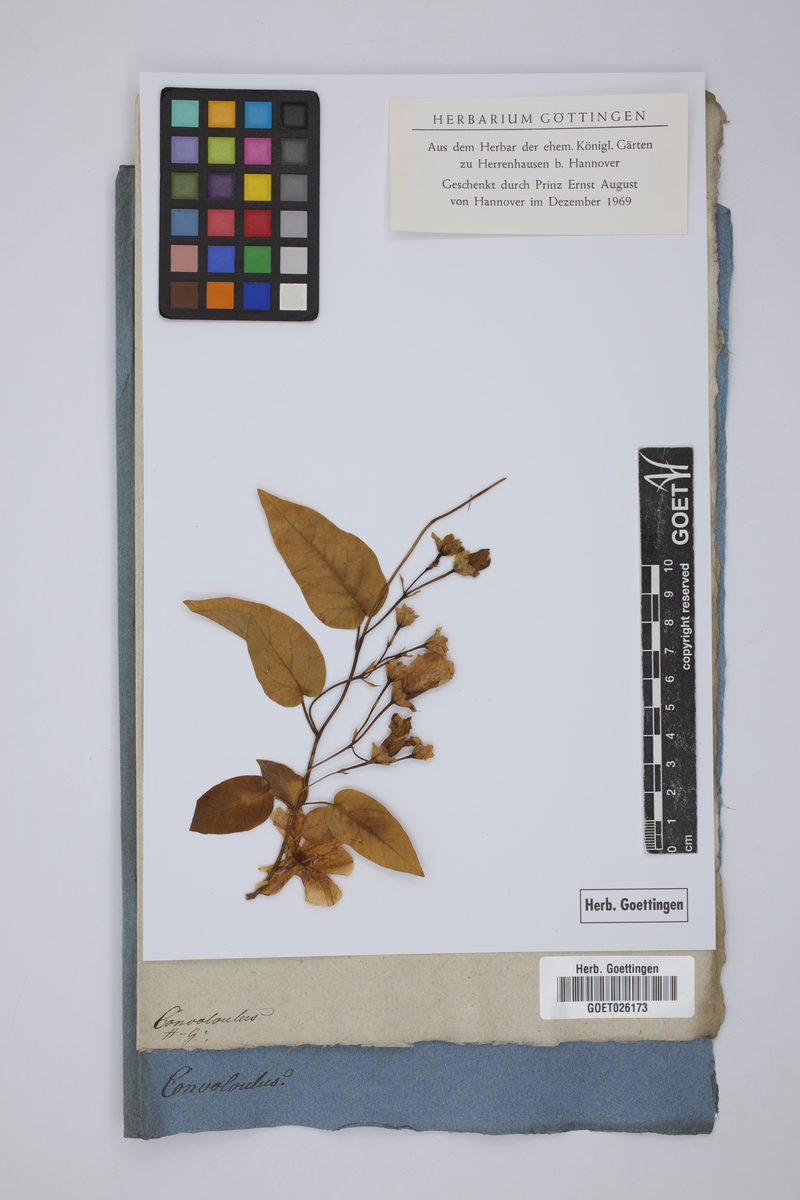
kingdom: Plantae
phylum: Tracheophyta
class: Magnoliopsida
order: Solanales
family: Convolvulaceae
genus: Convolvulus
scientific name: Convolvulus
